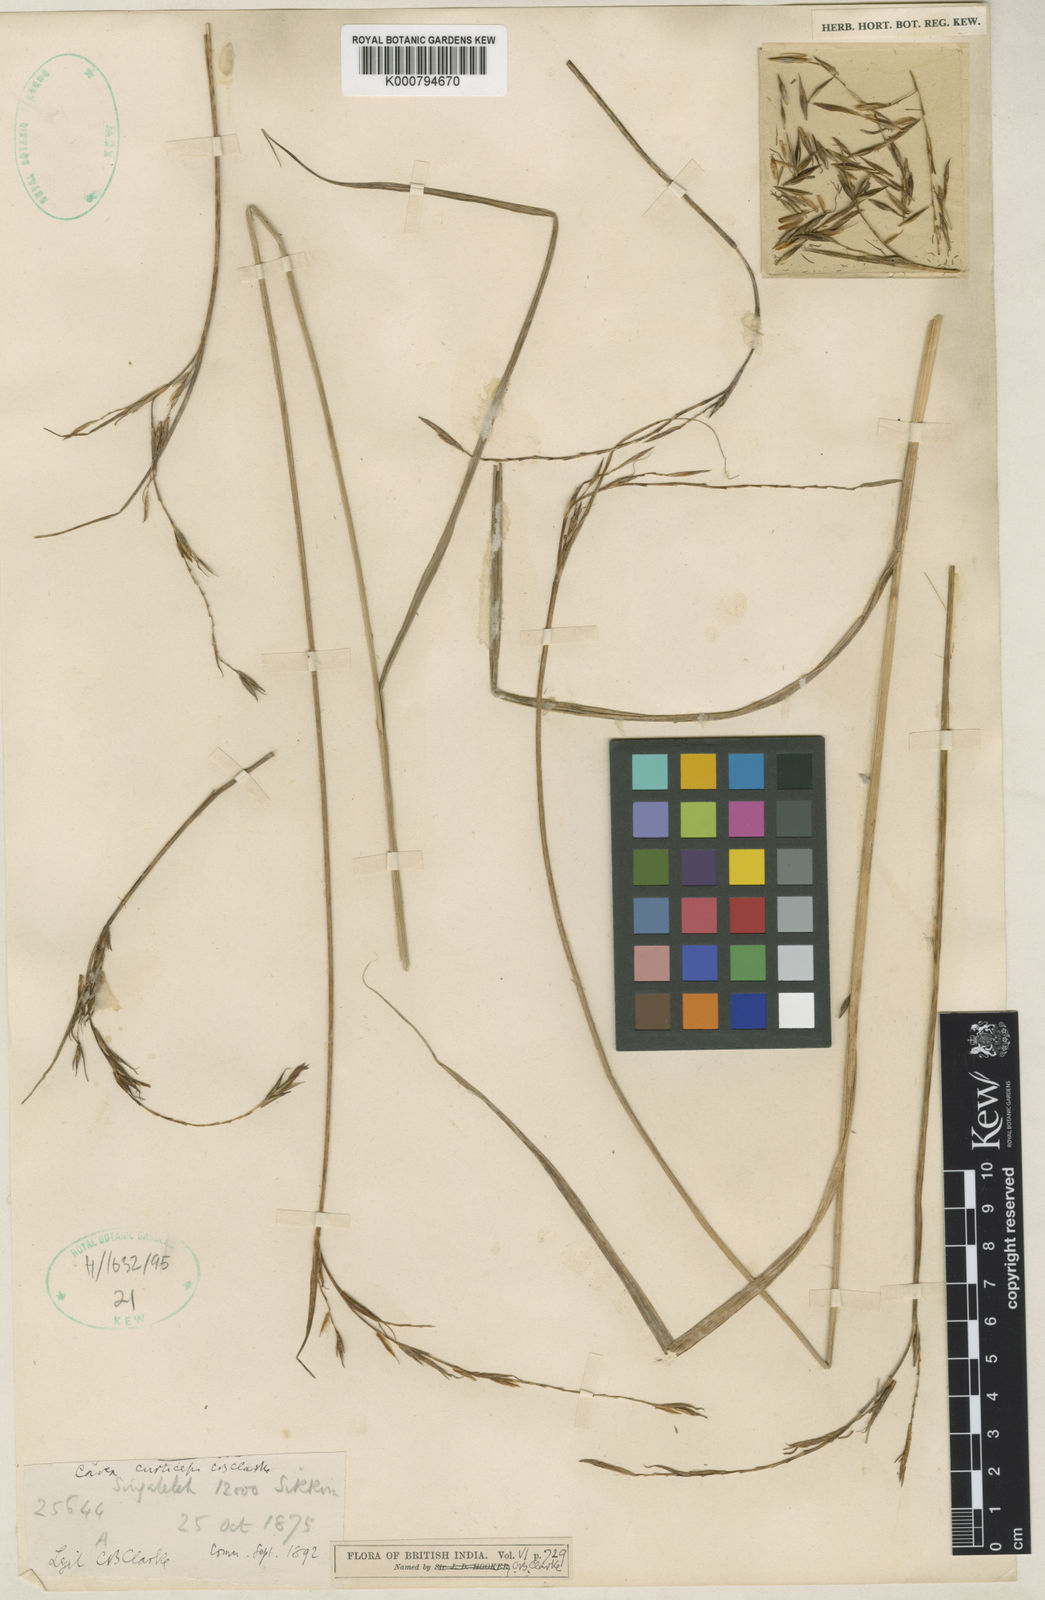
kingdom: Plantae
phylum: Tracheophyta
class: Liliopsida
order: Poales
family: Cyperaceae
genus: Carex
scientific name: Carex
